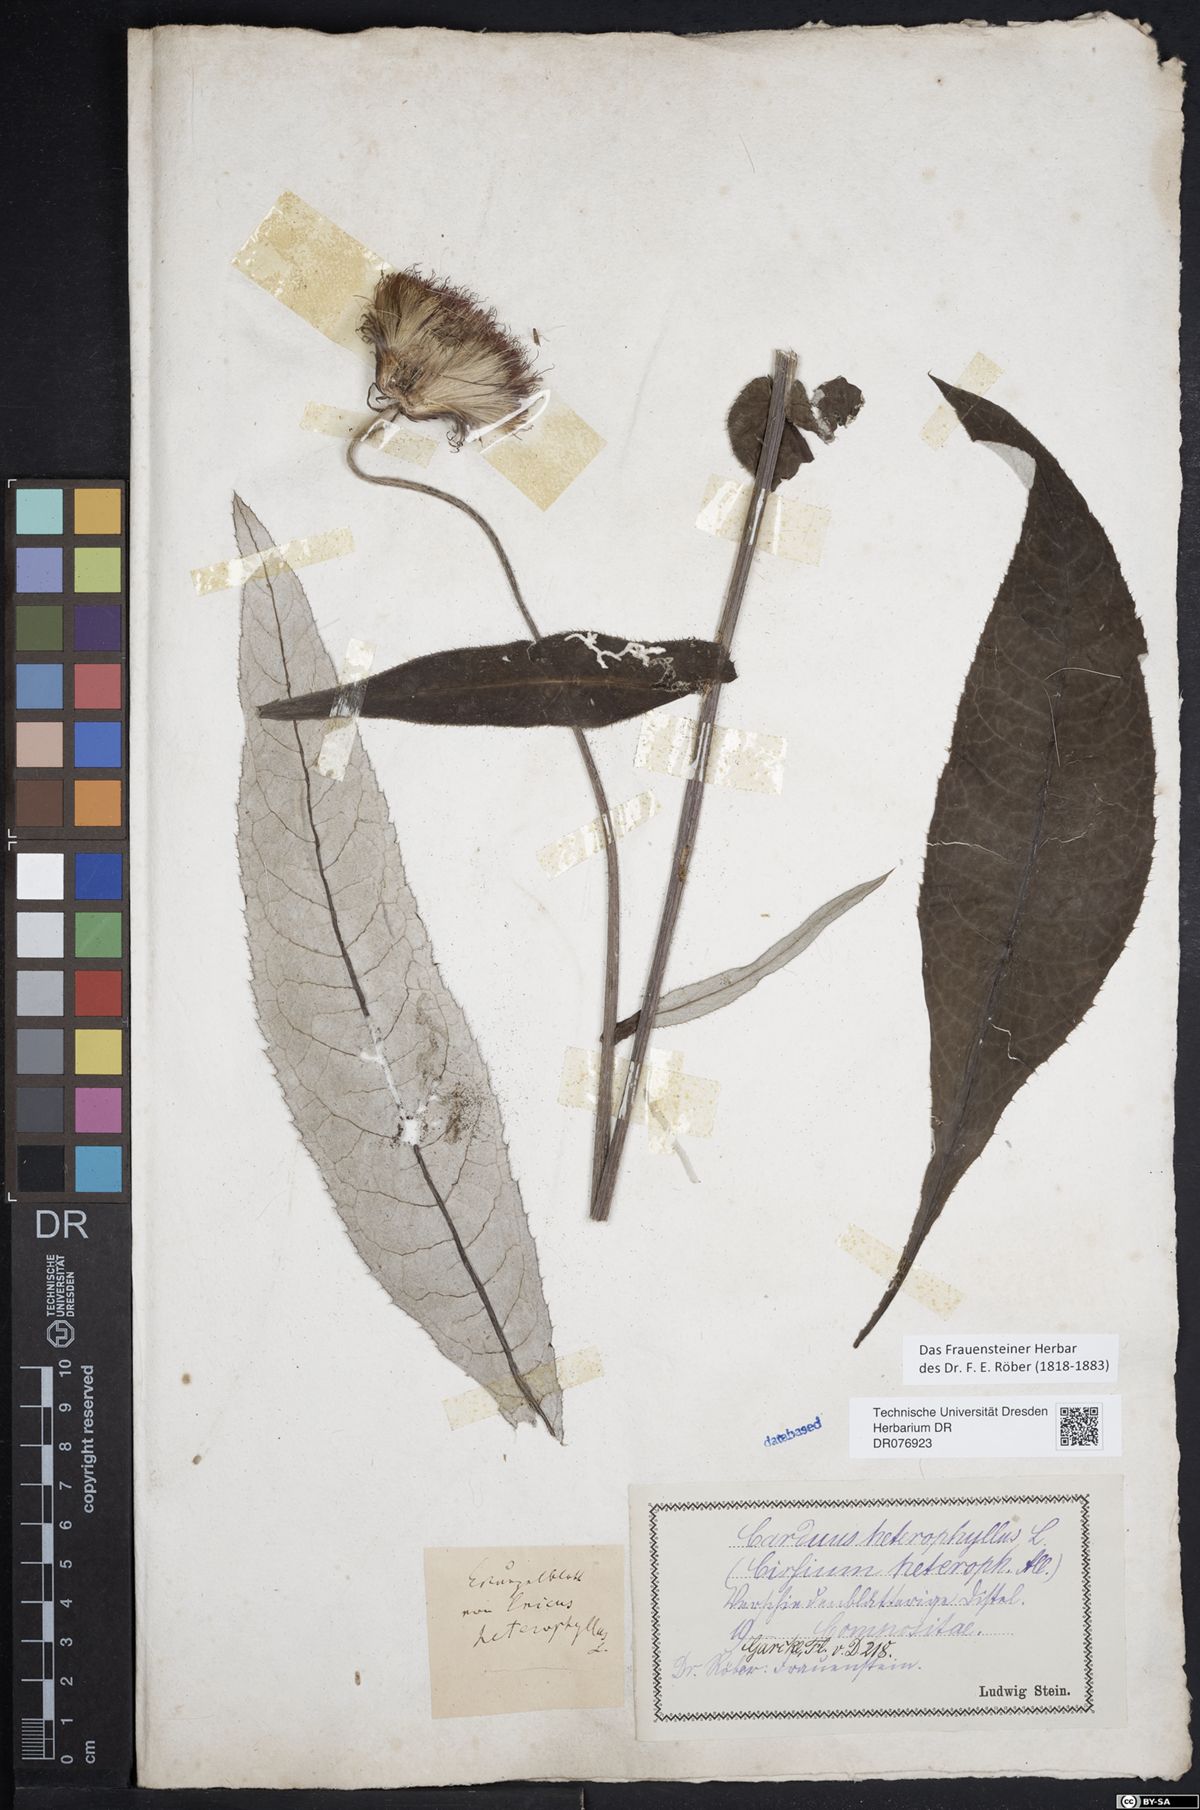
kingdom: Plantae
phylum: Tracheophyta
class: Magnoliopsida
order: Asterales
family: Asteraceae
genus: Cirsium
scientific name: Cirsium heterophyllum
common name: Melancholy thistle
